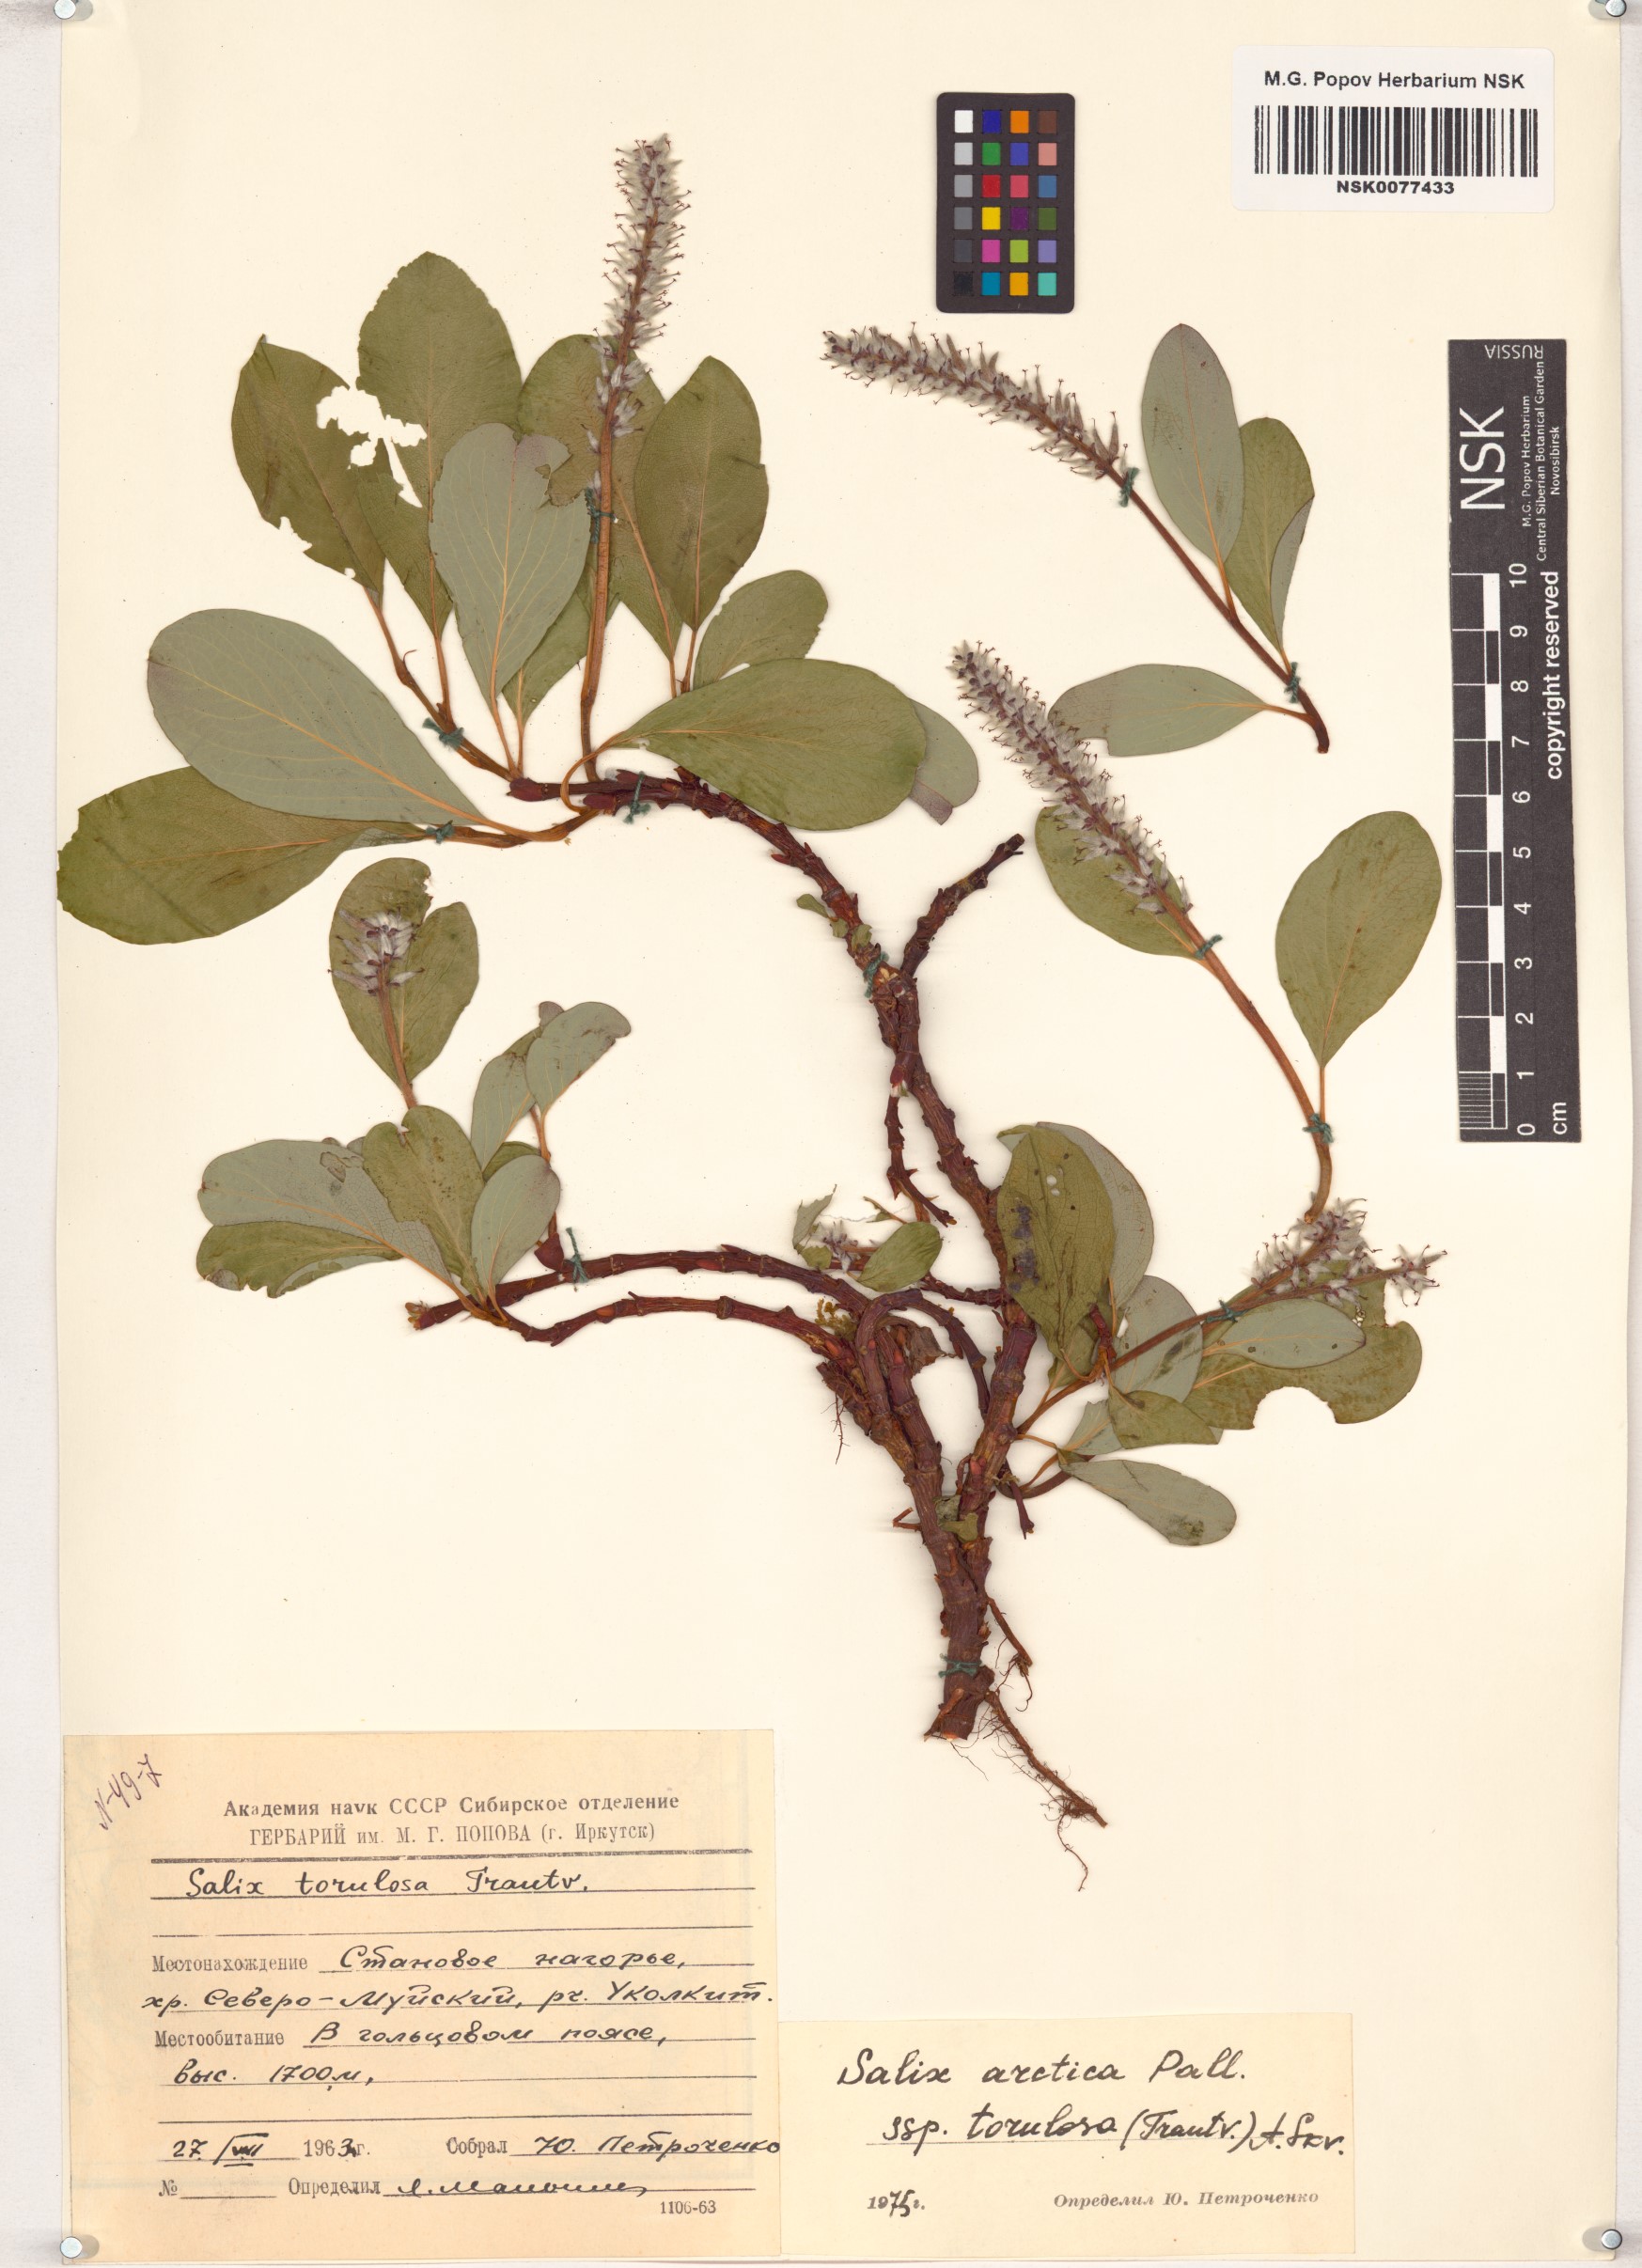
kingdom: Plantae
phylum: Tracheophyta
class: Magnoliopsida
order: Malpighiales
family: Salicaceae
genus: Salix
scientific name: Salix arctica
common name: Arctic willow
